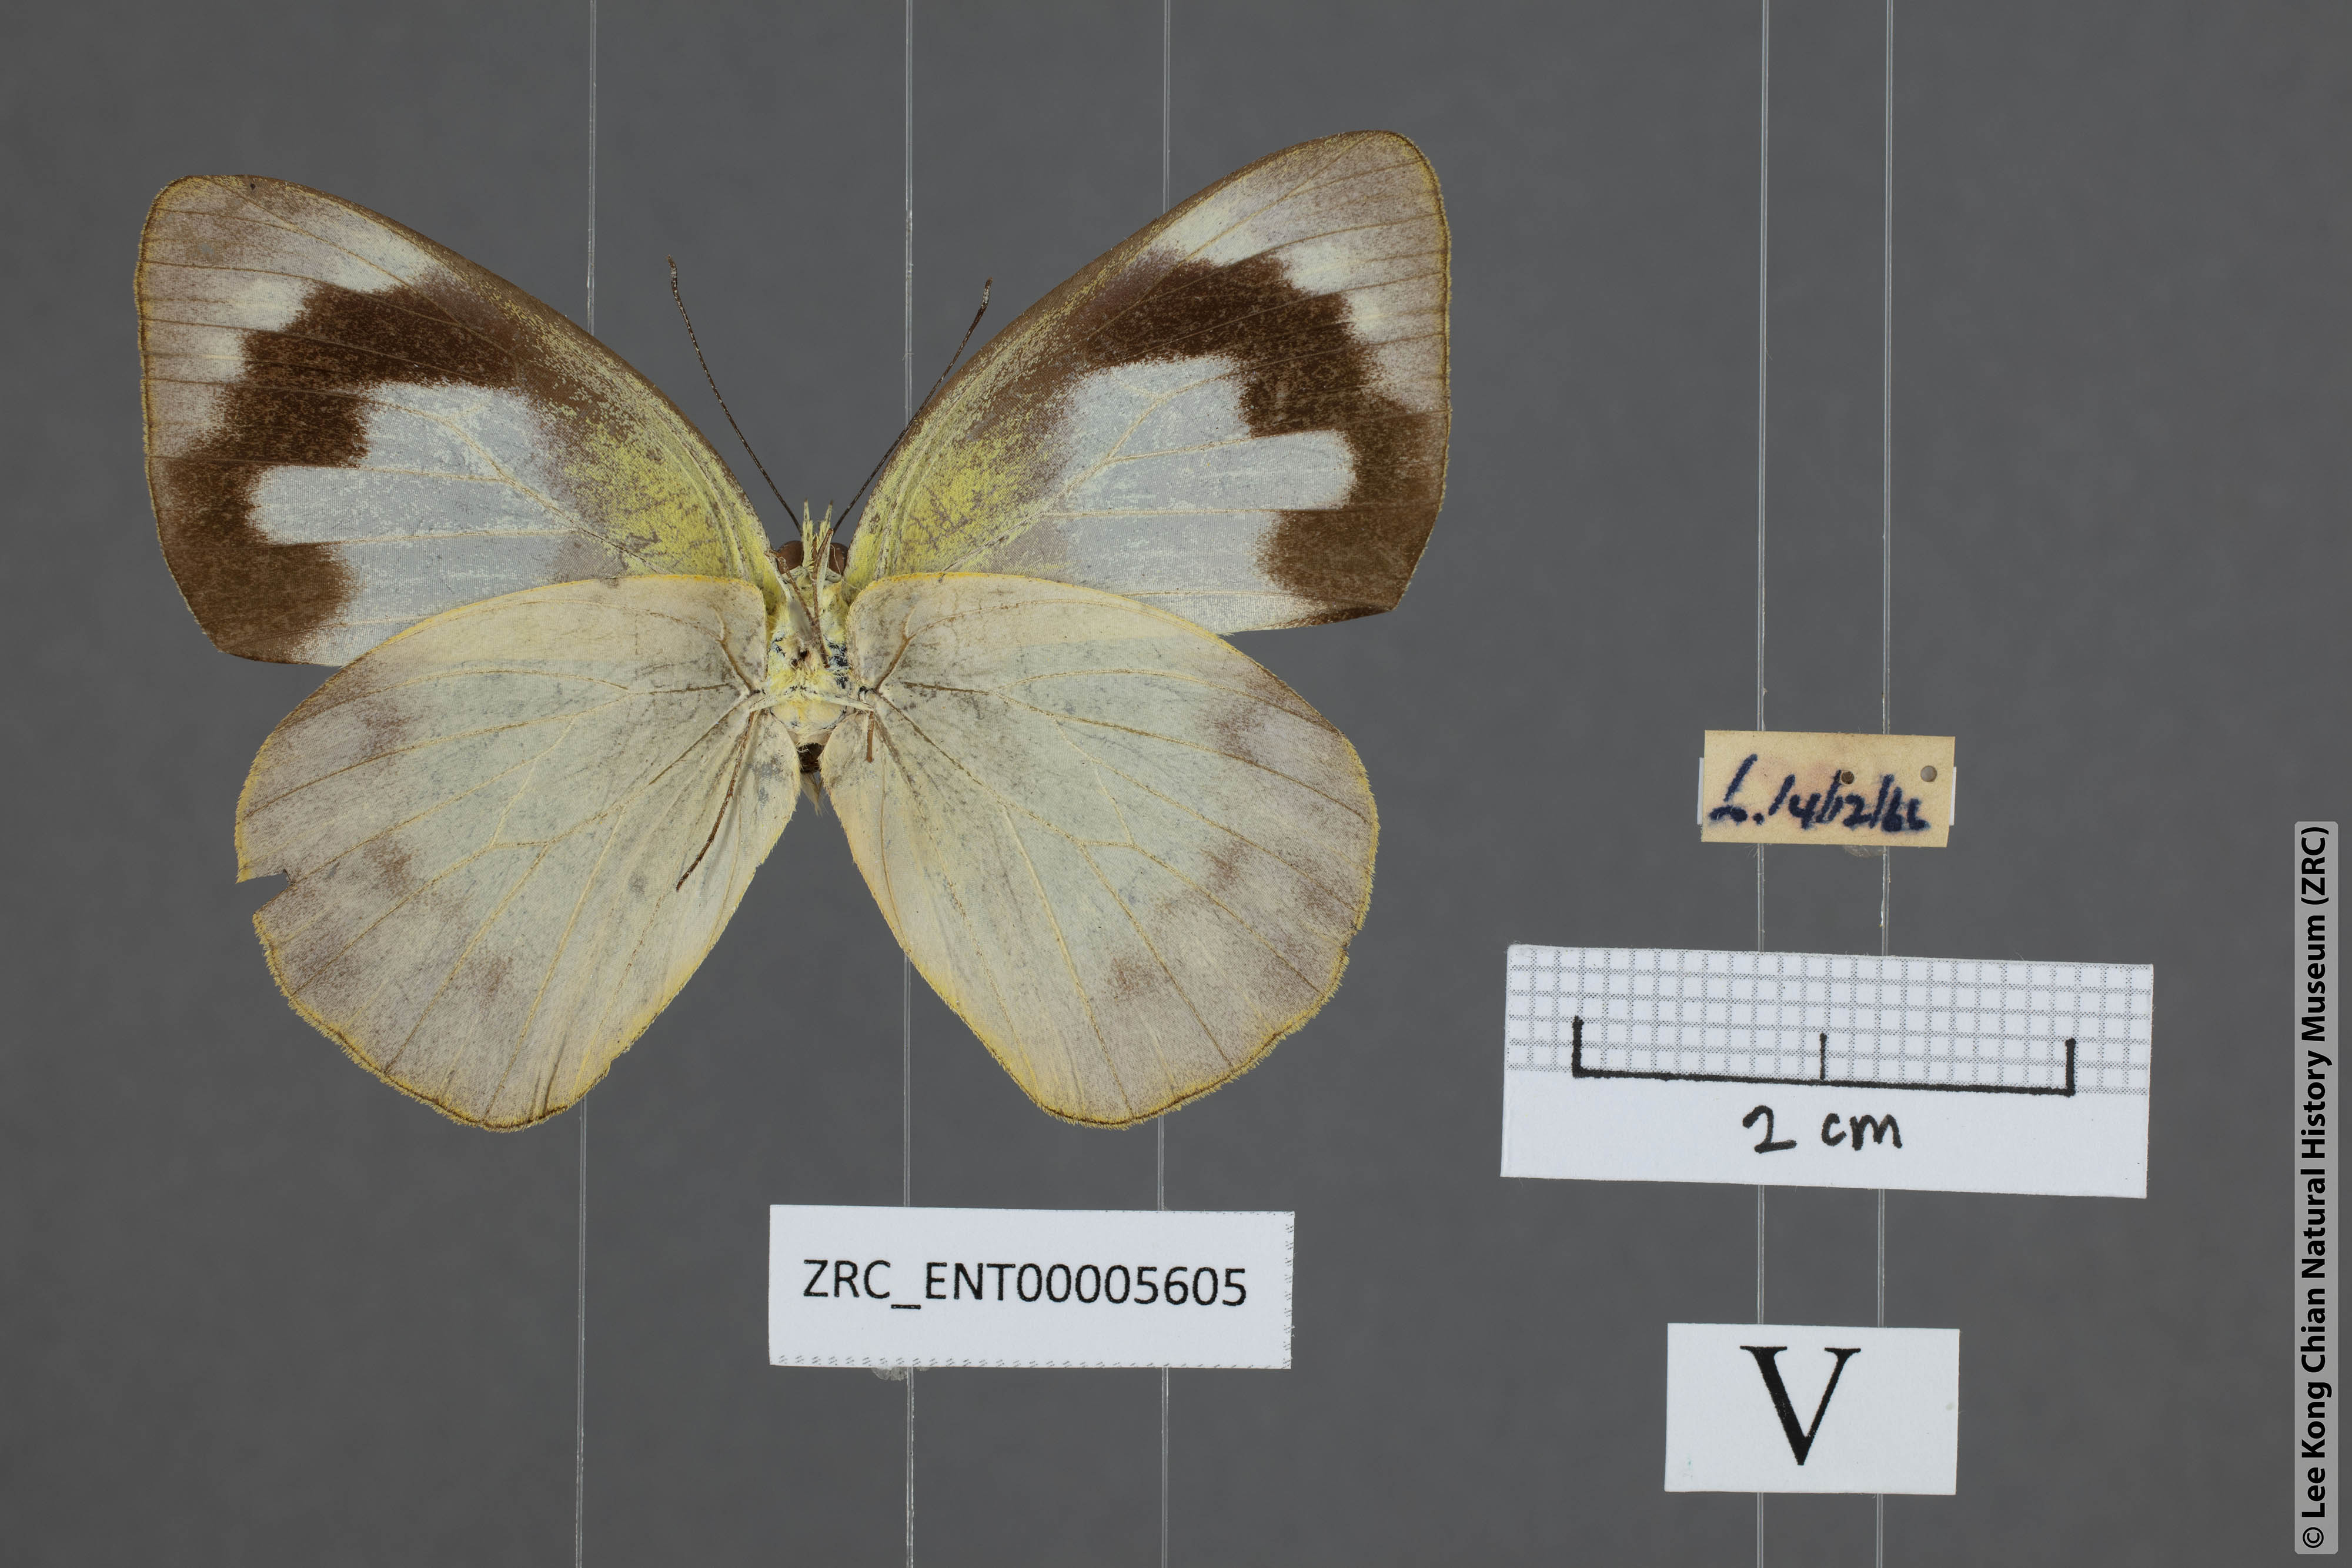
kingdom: Animalia
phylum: Arthropoda
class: Insecta
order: Lepidoptera
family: Pieridae
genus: Appias
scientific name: Appias paulina
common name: Ceylon lesser albatross
